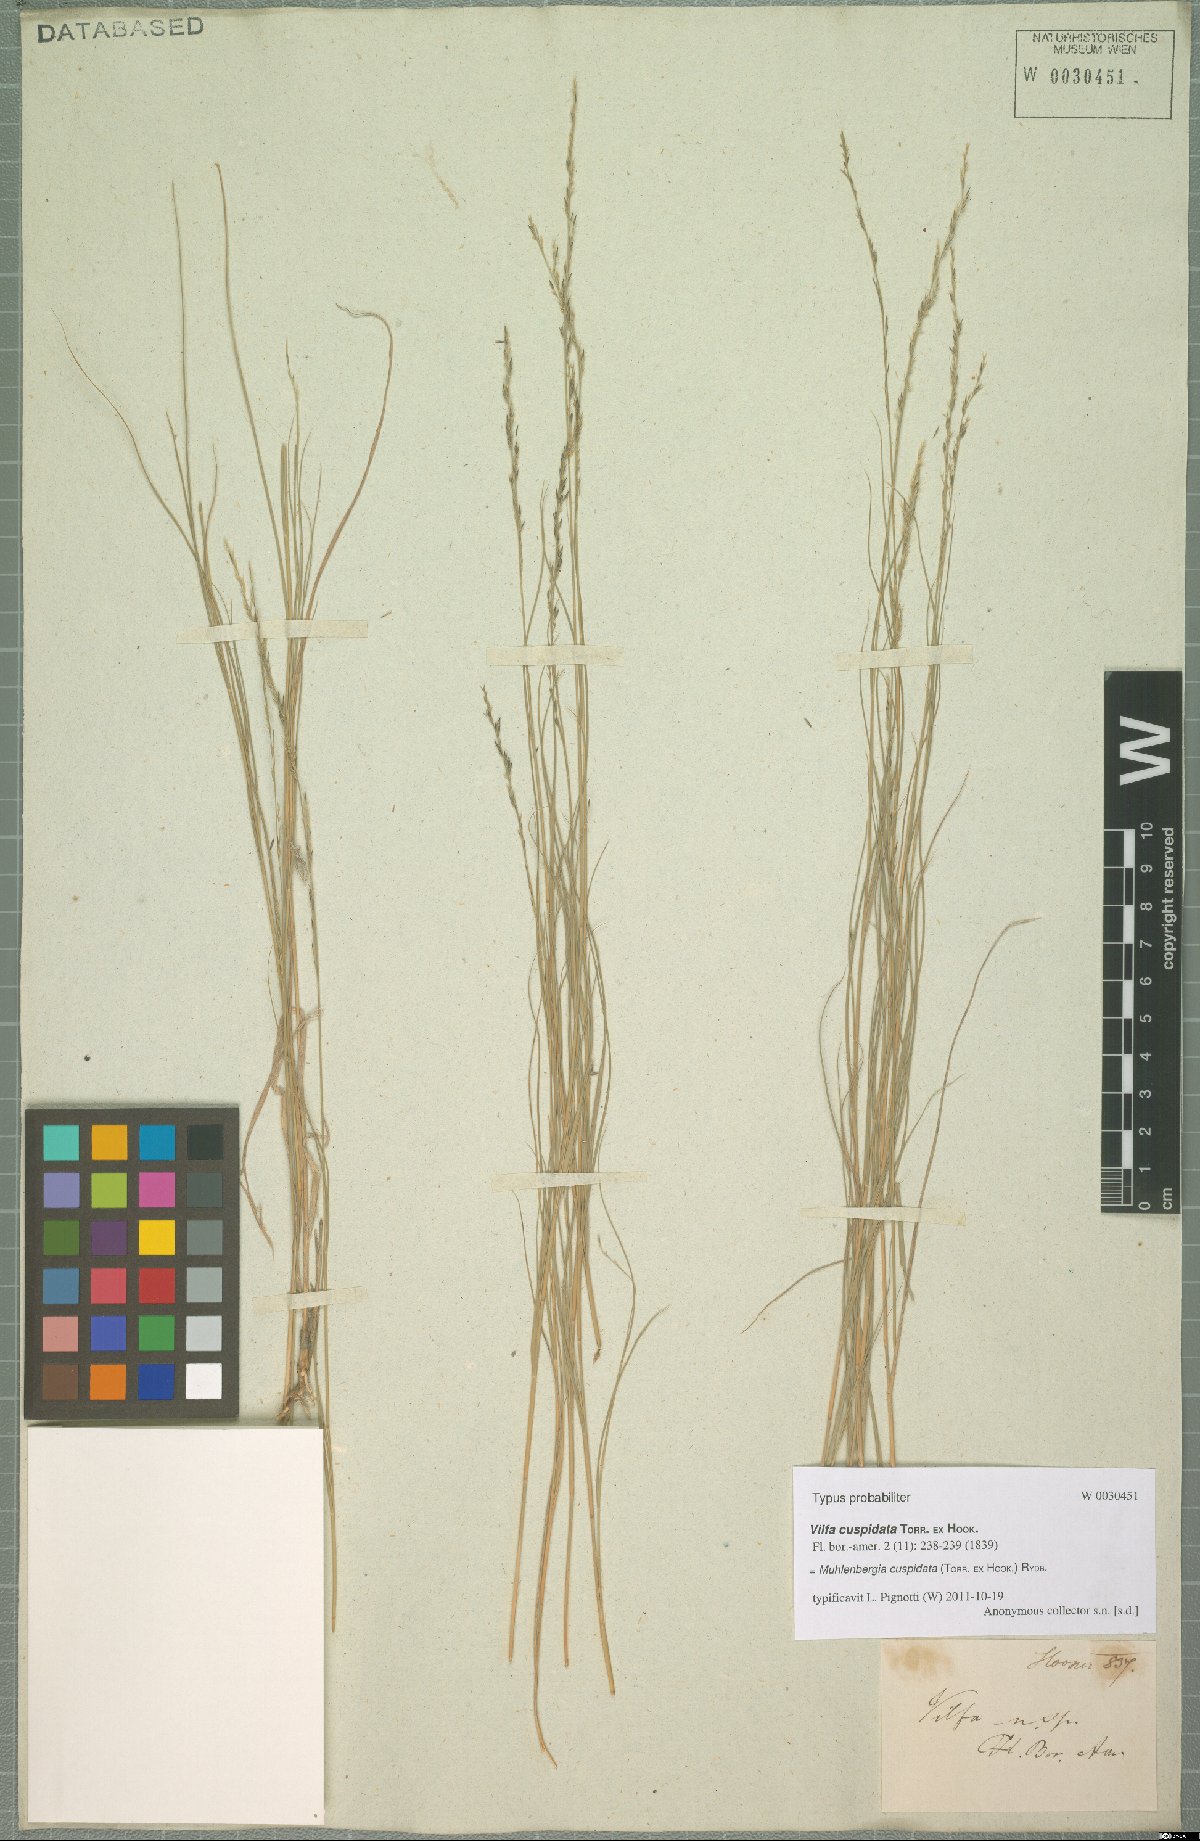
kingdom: Plantae
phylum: Tracheophyta
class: Liliopsida
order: Poales
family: Poaceae
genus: Muhlenbergia
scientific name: Muhlenbergia cuspidata
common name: Plains muhly
